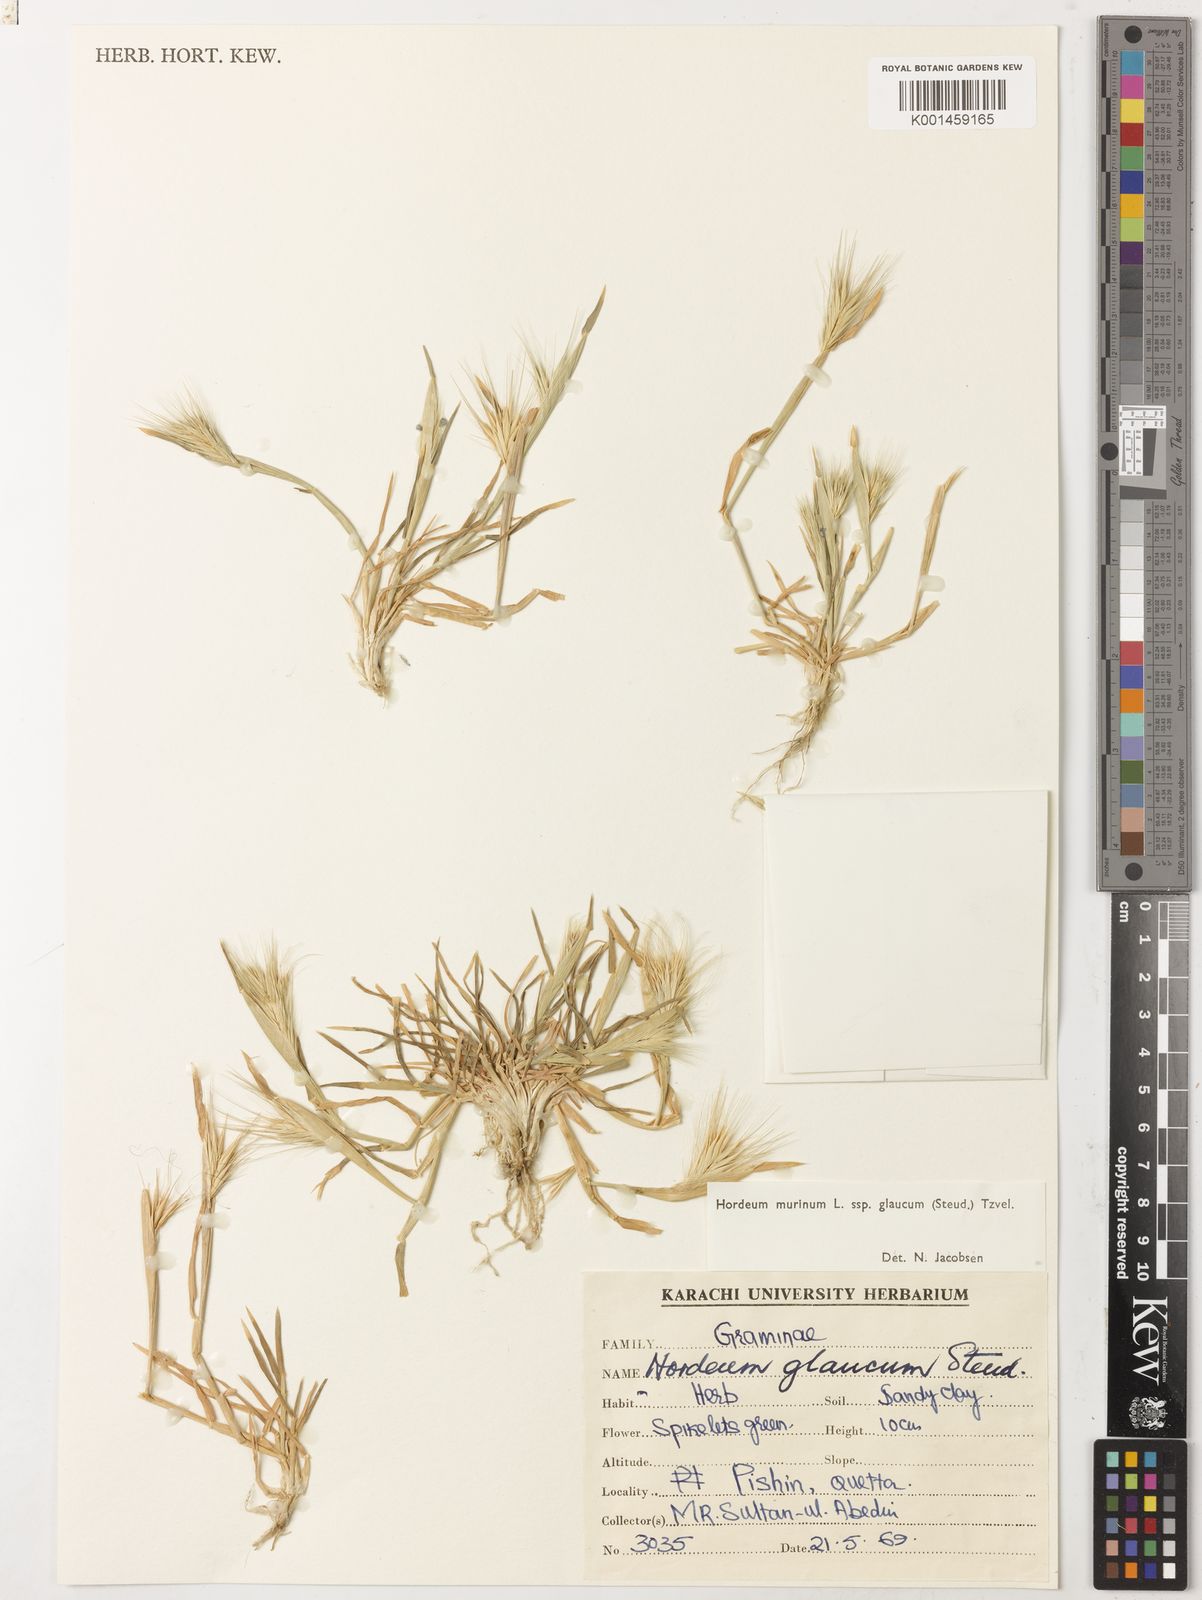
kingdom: Plantae
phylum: Tracheophyta
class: Liliopsida
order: Poales
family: Poaceae
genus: Hordeum
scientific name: Hordeum murinum
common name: Wall barley
